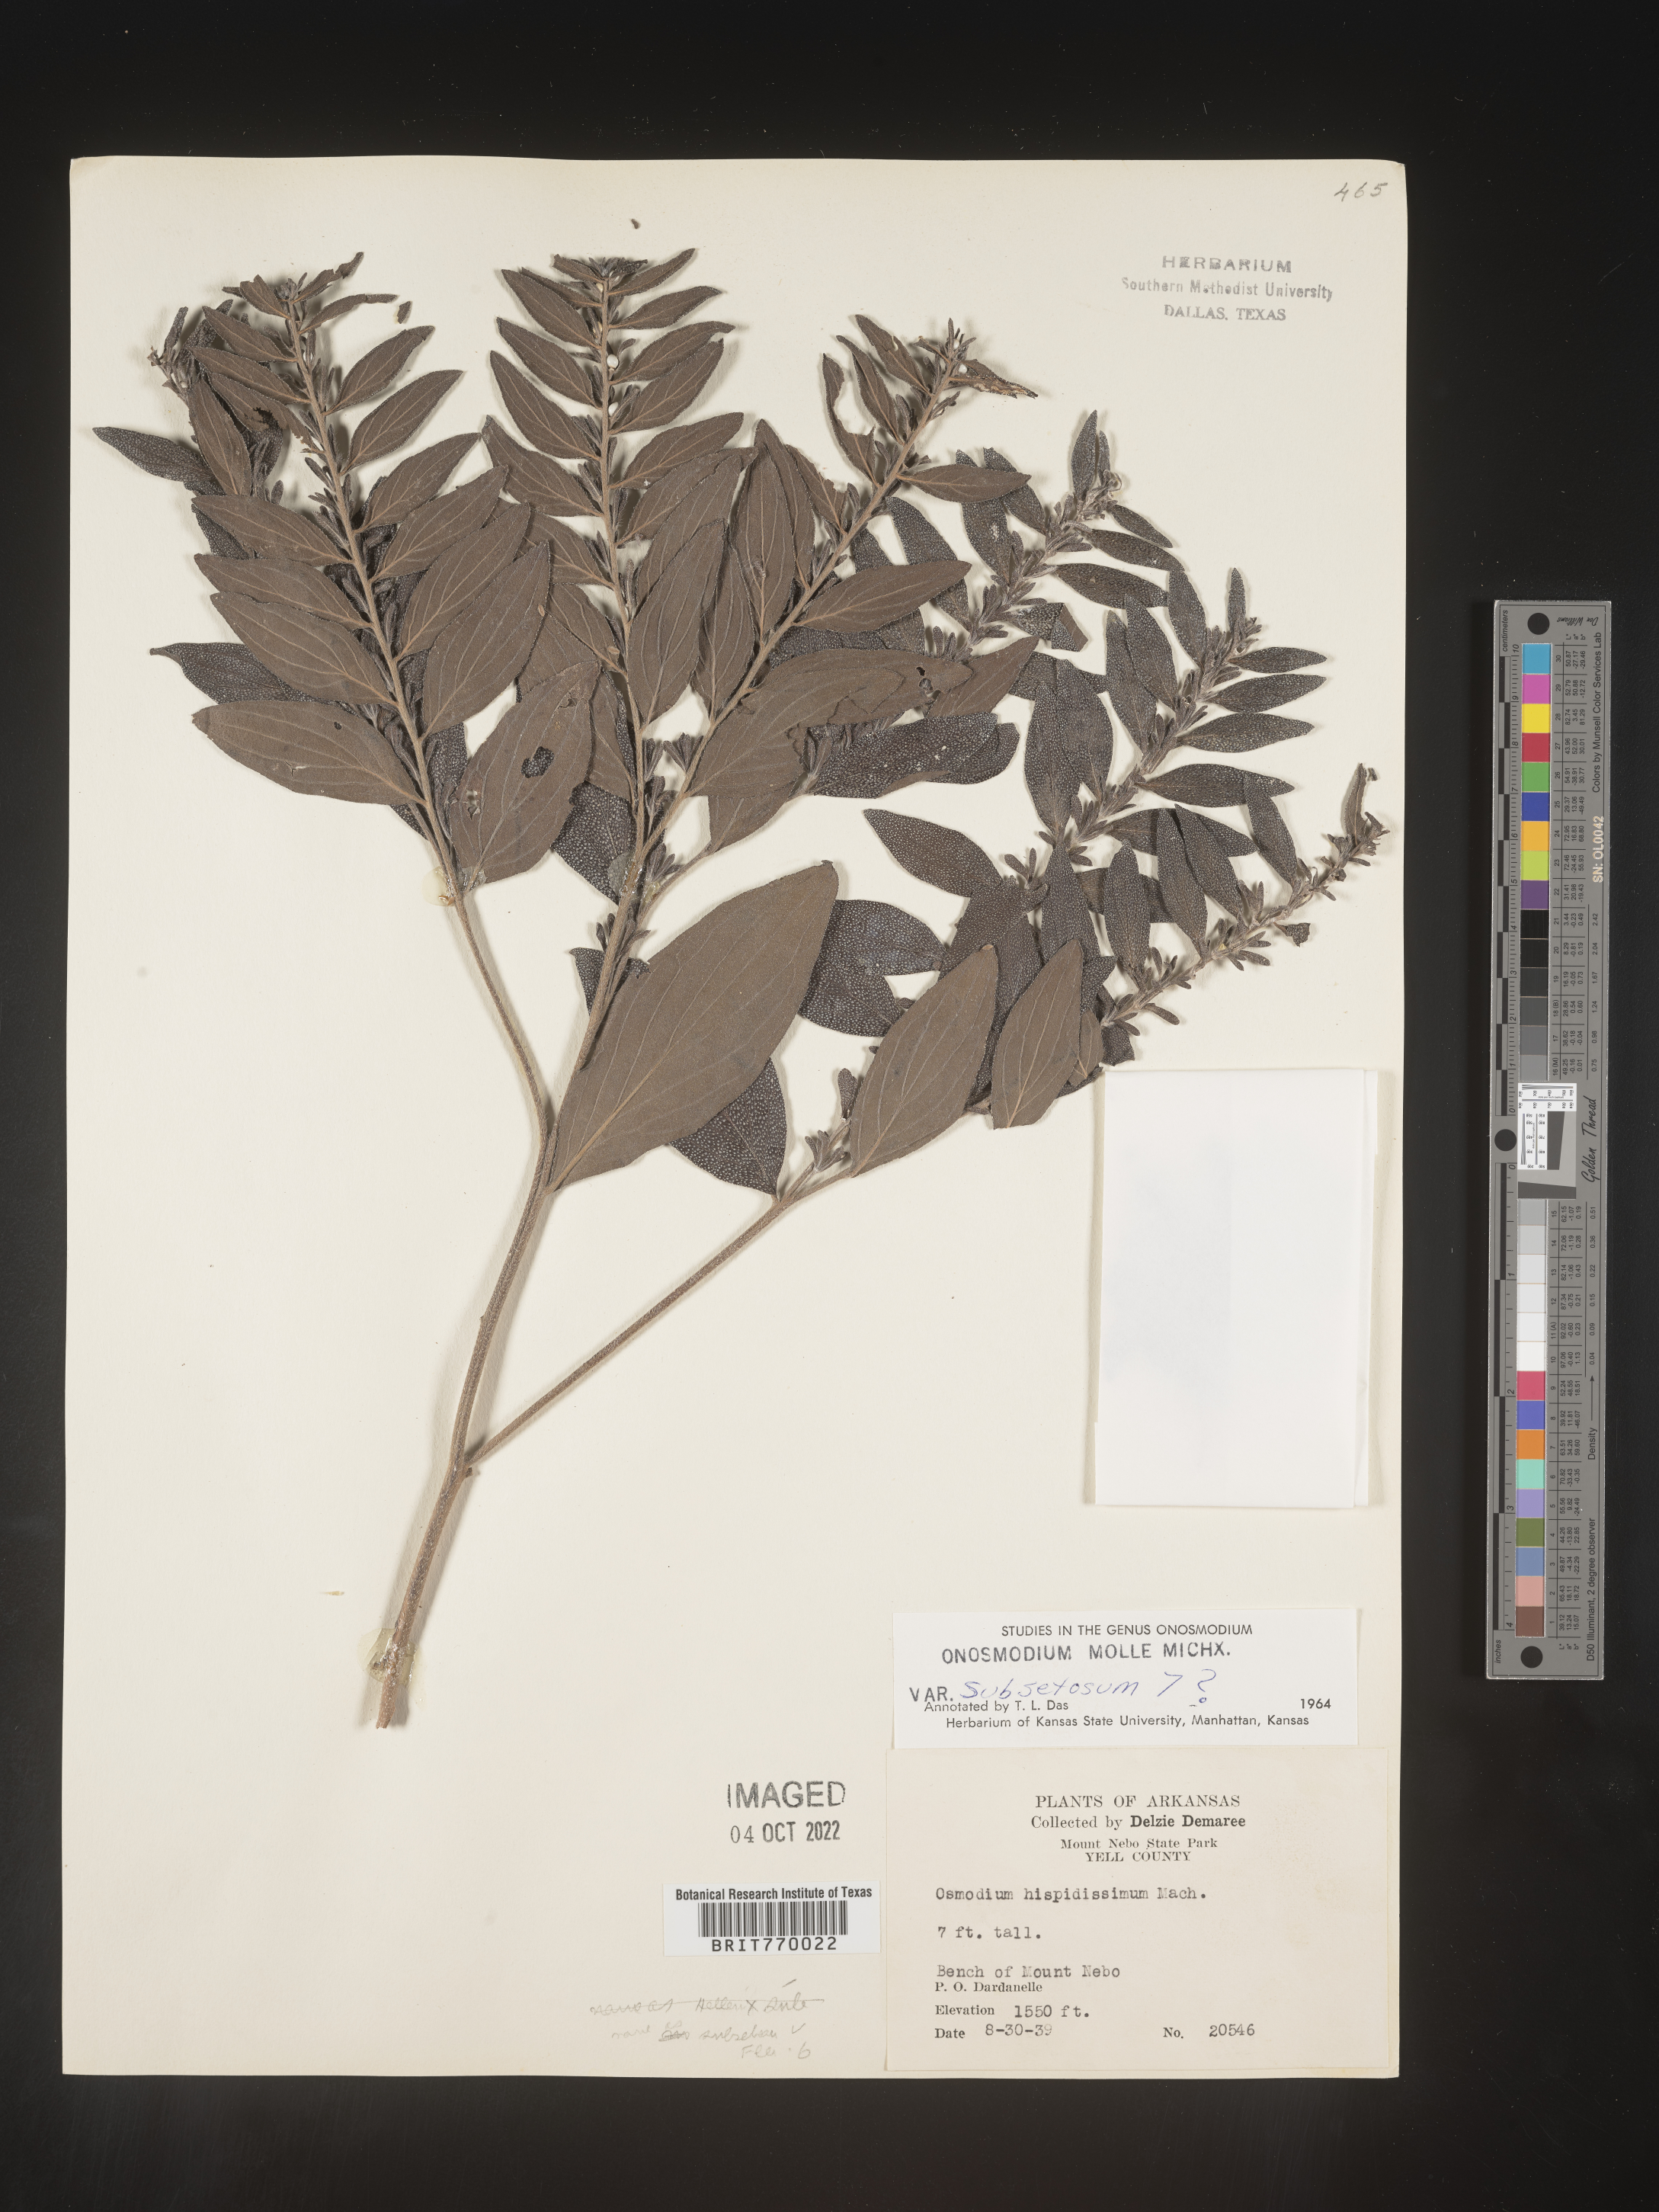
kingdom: Plantae
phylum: Tracheophyta
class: Magnoliopsida
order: Boraginales
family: Boraginaceae
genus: Lithospermum
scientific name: Lithospermum subsetosum
